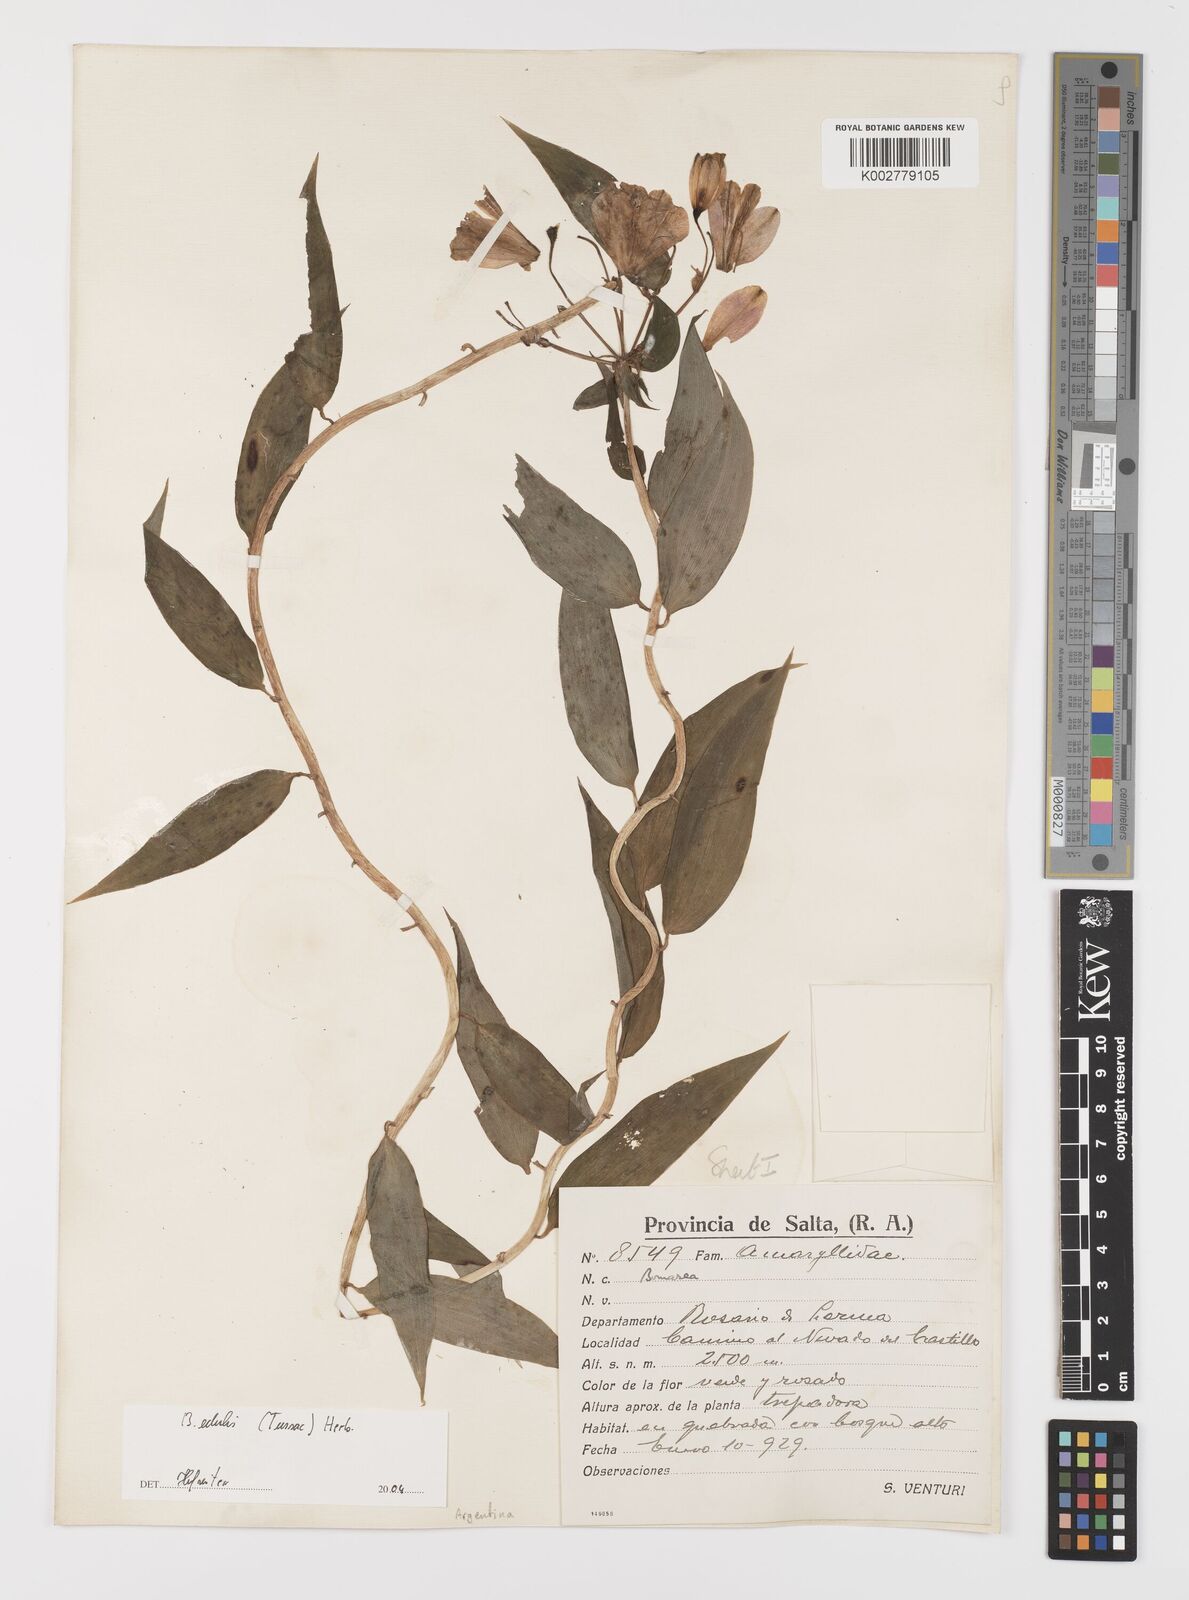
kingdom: Plantae
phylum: Tracheophyta
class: Liliopsida
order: Liliales
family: Alstroemeriaceae
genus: Bomarea
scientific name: Bomarea edulis
